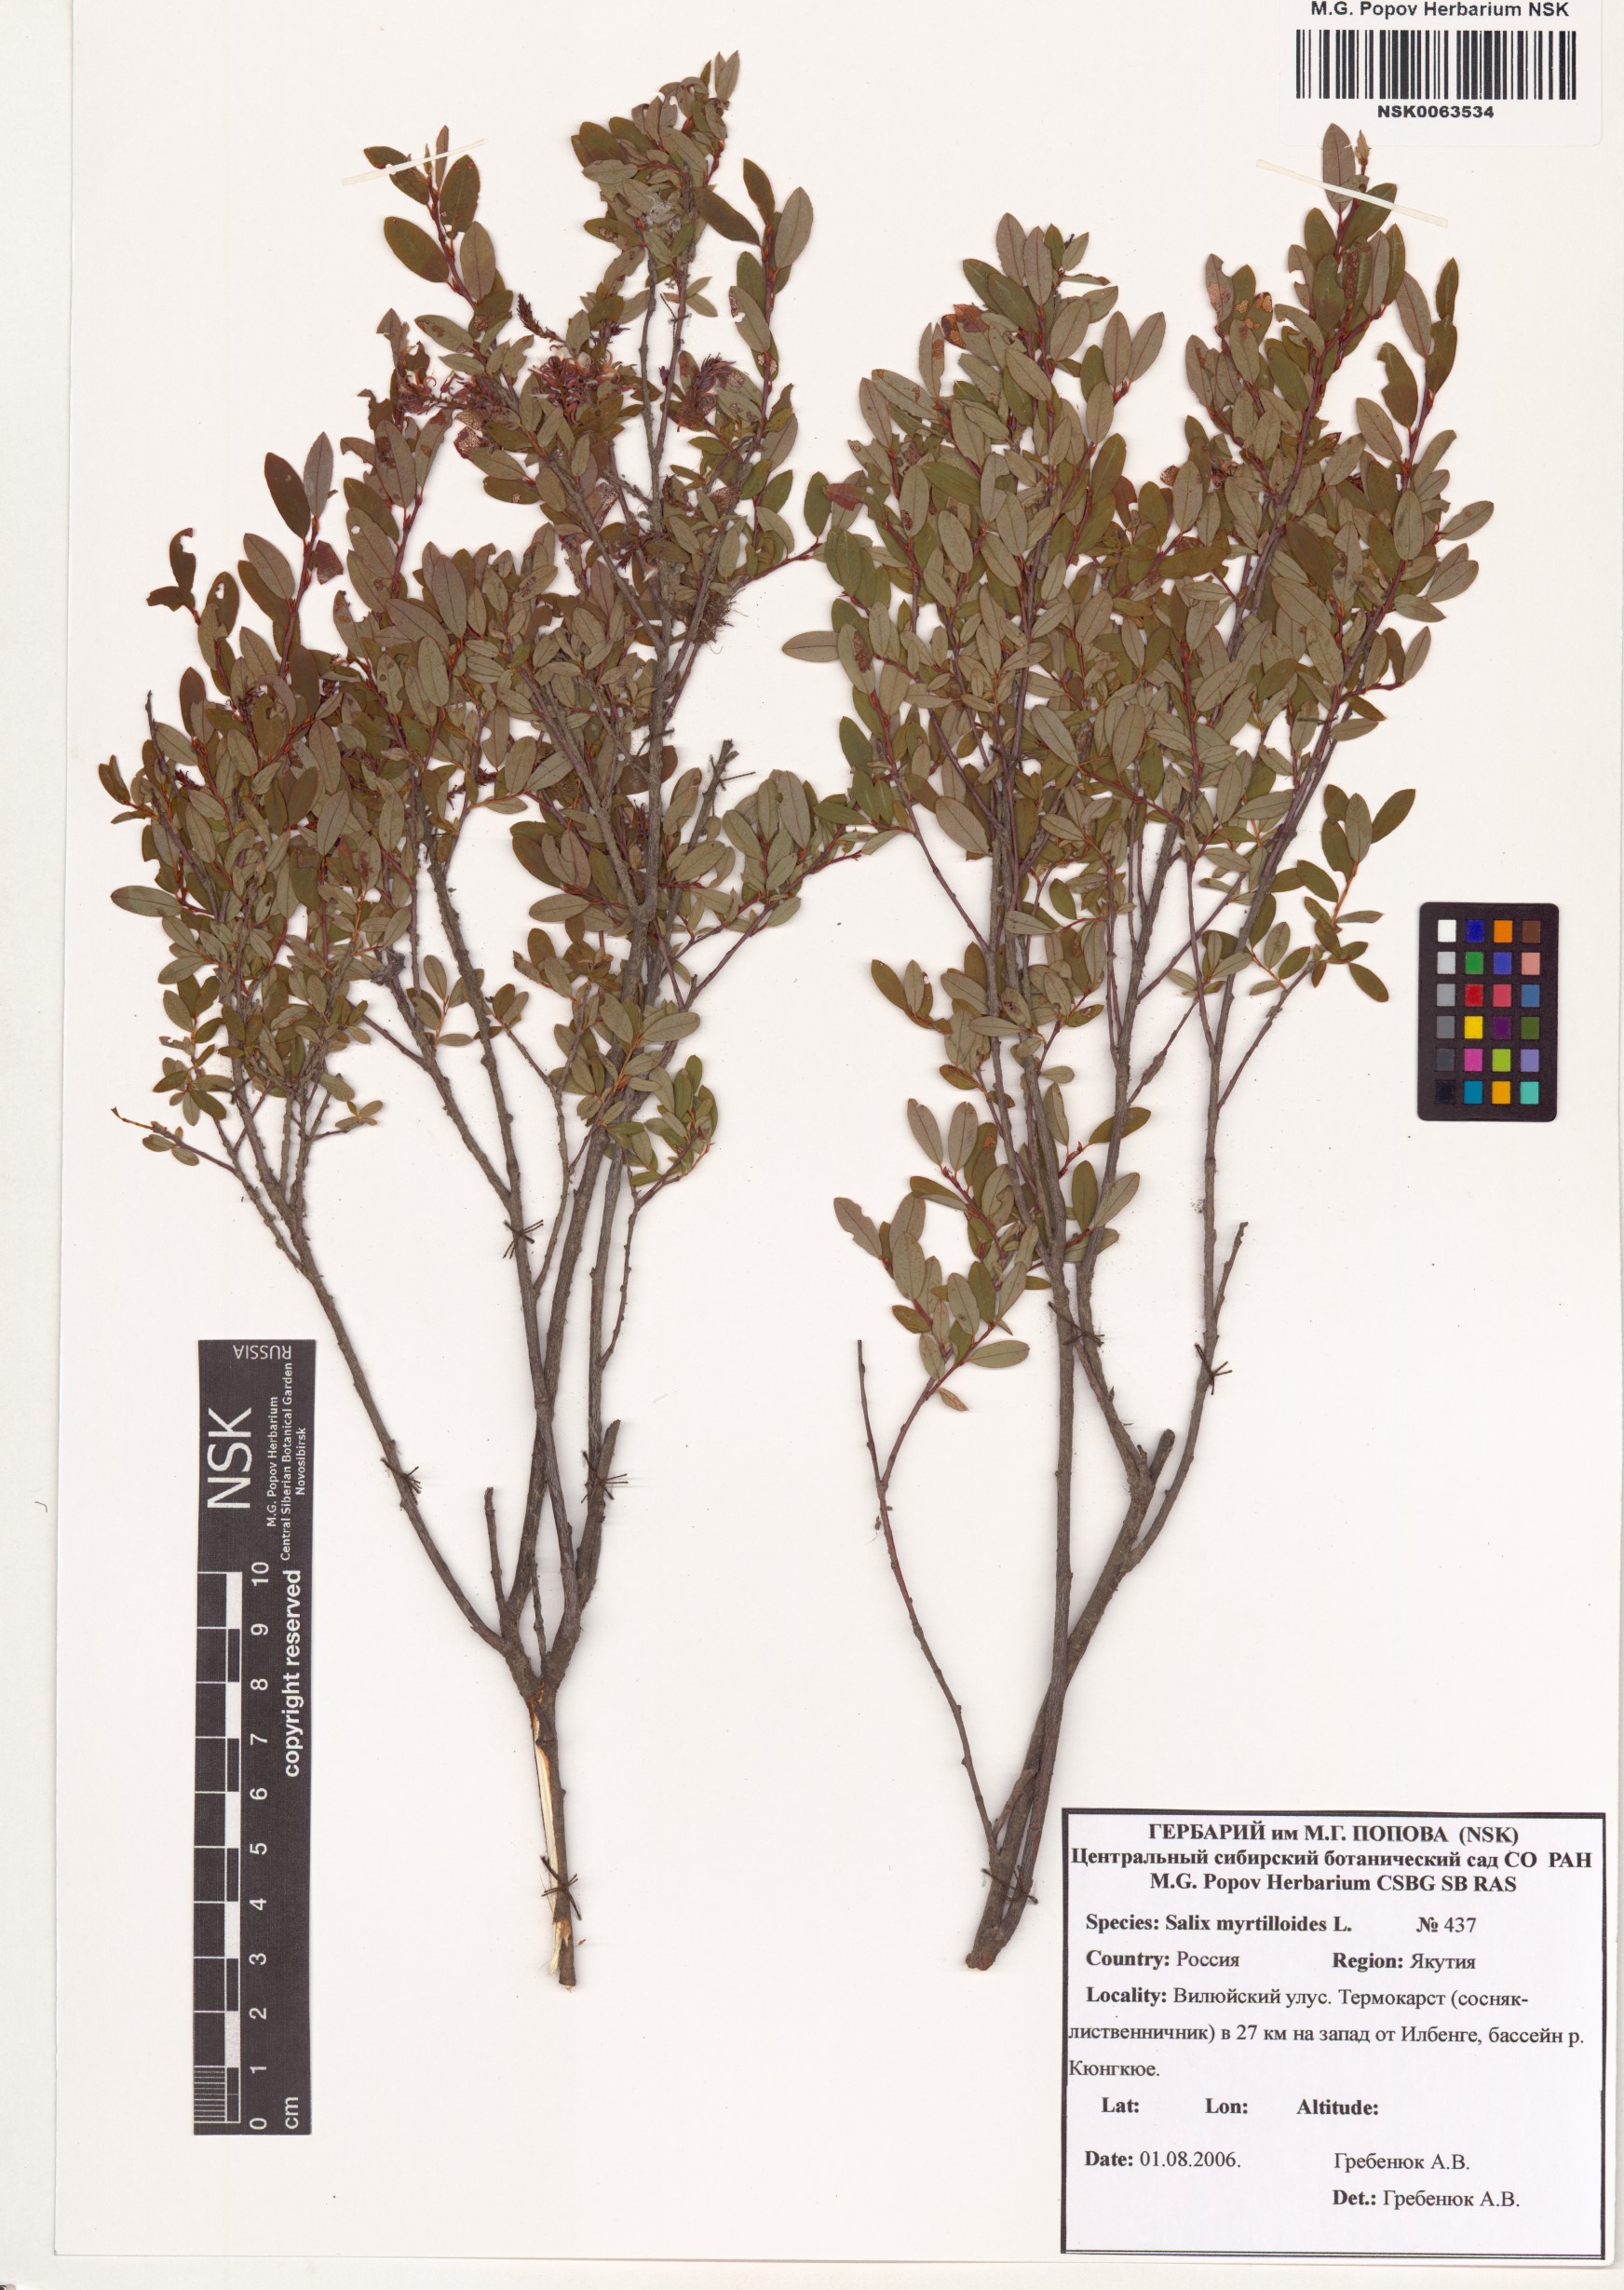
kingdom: Plantae
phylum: Tracheophyta
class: Magnoliopsida
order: Malpighiales
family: Salicaceae
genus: Salix
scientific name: Salix myrtilloides
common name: Myrtle-leaved willow
